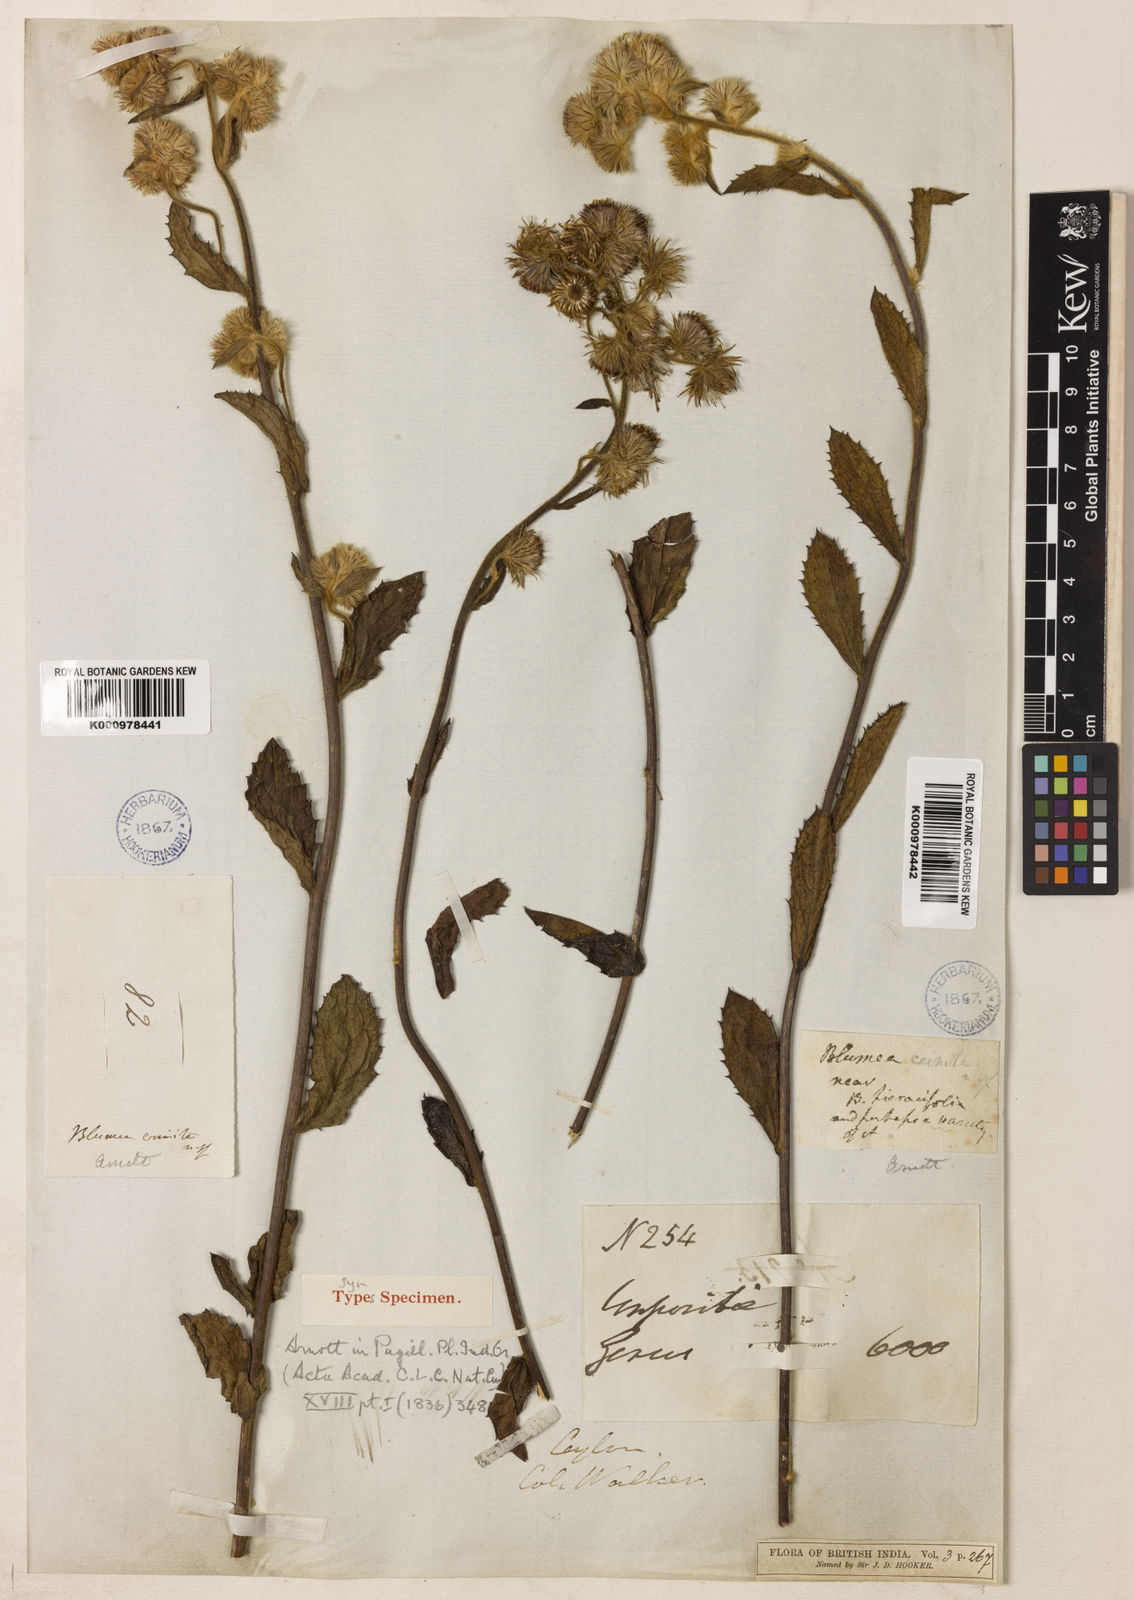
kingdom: Plantae
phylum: Tracheophyta
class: Magnoliopsida
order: Asterales
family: Asteraceae
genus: Blumea
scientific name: Blumea crinita
